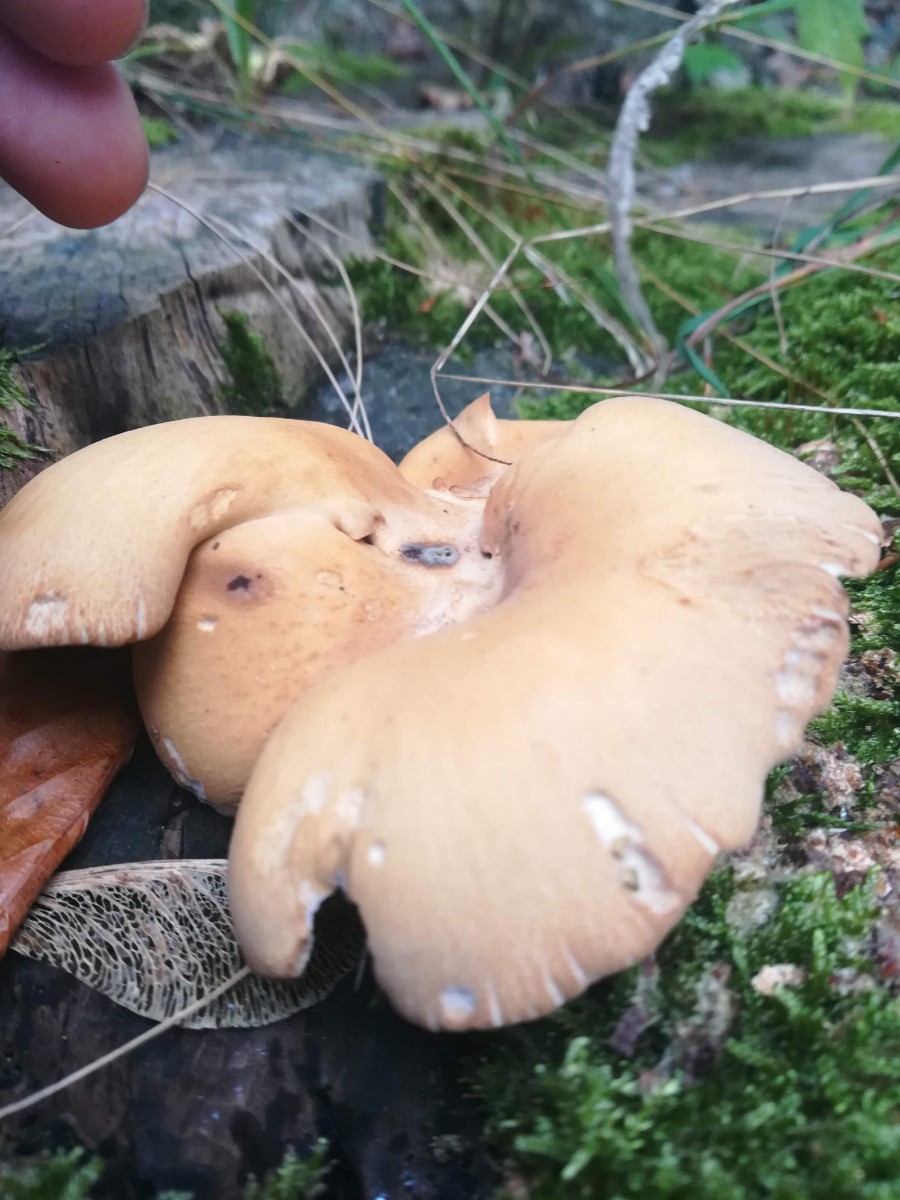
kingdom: Fungi
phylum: Basidiomycota
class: Agaricomycetes
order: Polyporales
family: Polyporaceae
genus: Cerioporus
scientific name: Cerioporus varius
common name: foranderlig stilkporesvamp
